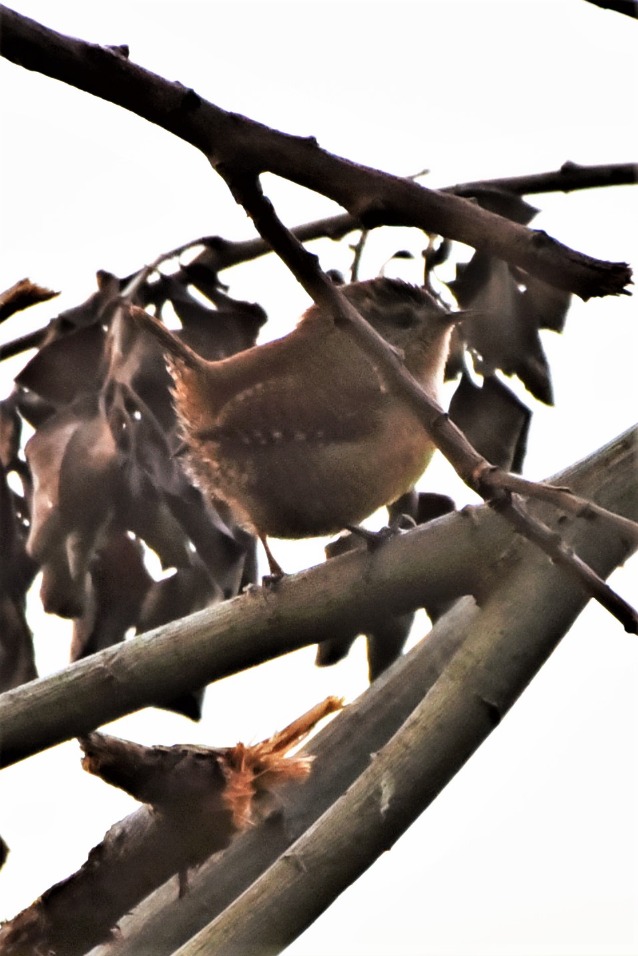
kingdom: Animalia
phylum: Chordata
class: Aves
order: Passeriformes
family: Troglodytidae
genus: Troglodytes
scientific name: Troglodytes troglodytes
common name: Gærdesmutte
